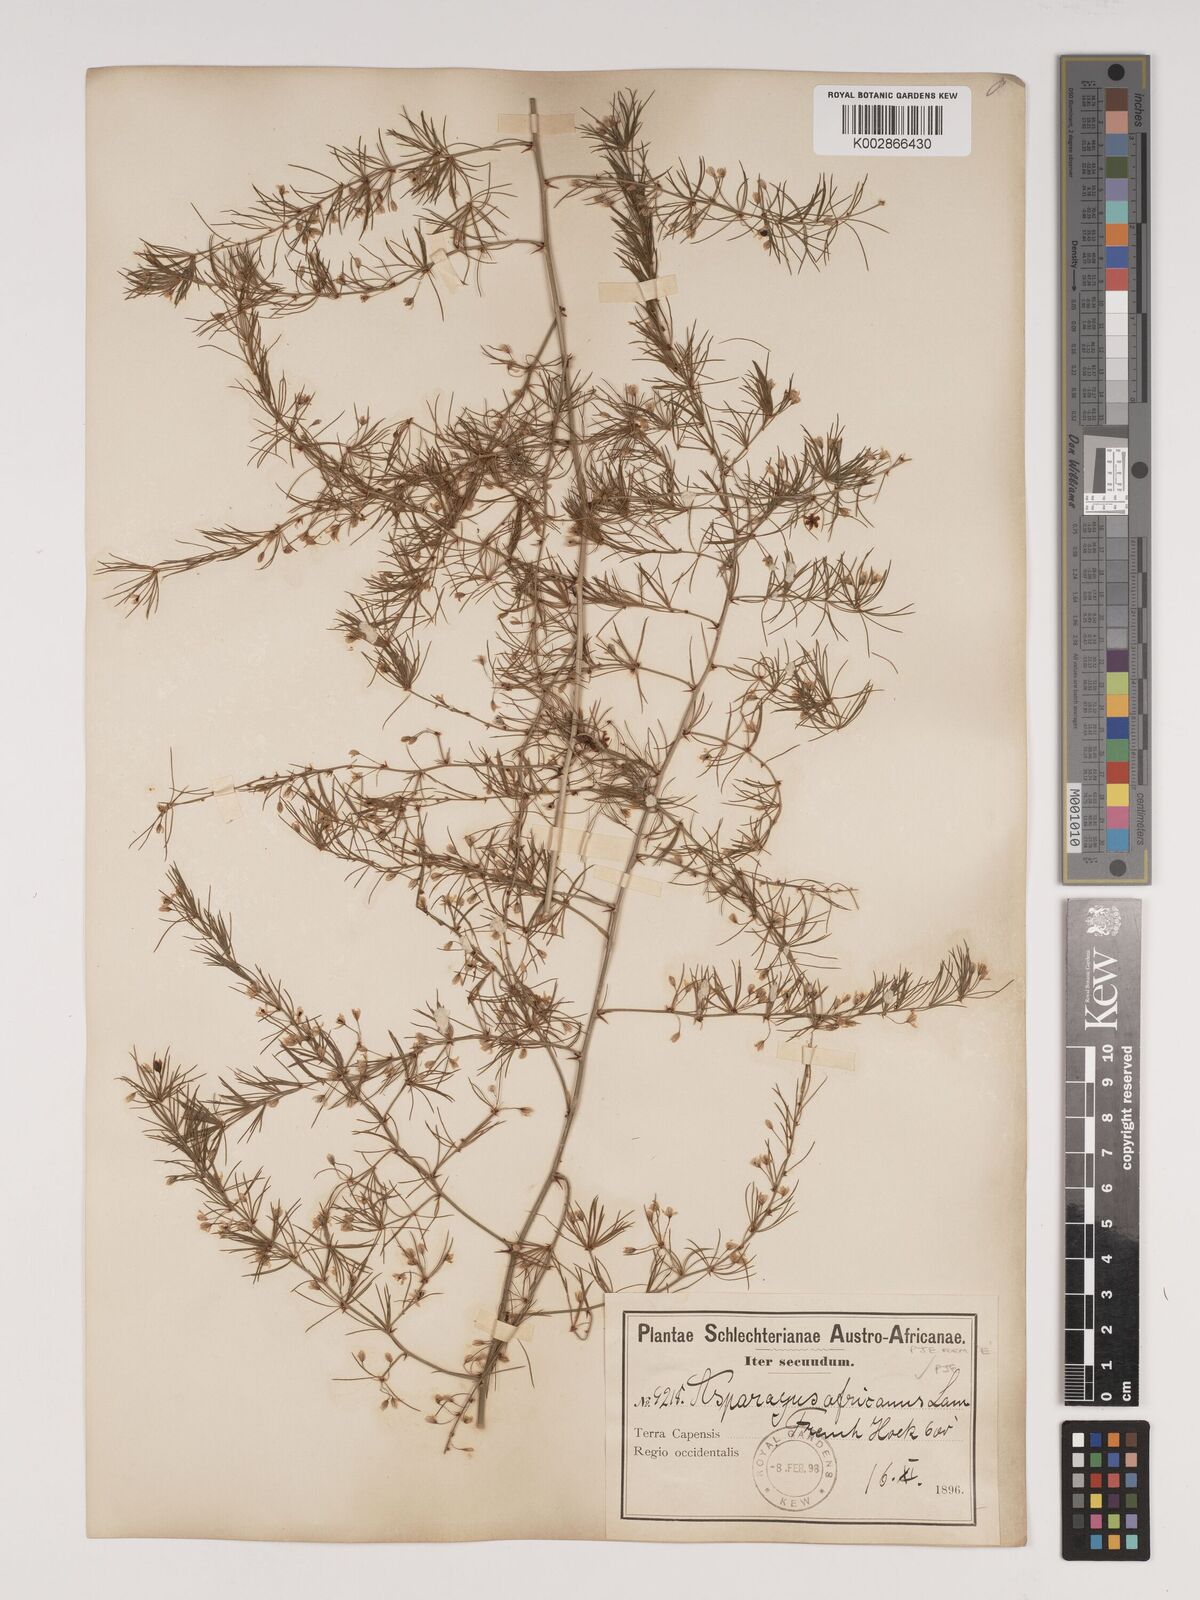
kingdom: Plantae
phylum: Tracheophyta
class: Liliopsida
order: Asparagales
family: Asparagaceae
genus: Asparagus
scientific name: Asparagus africanus
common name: Asparagus-fern
